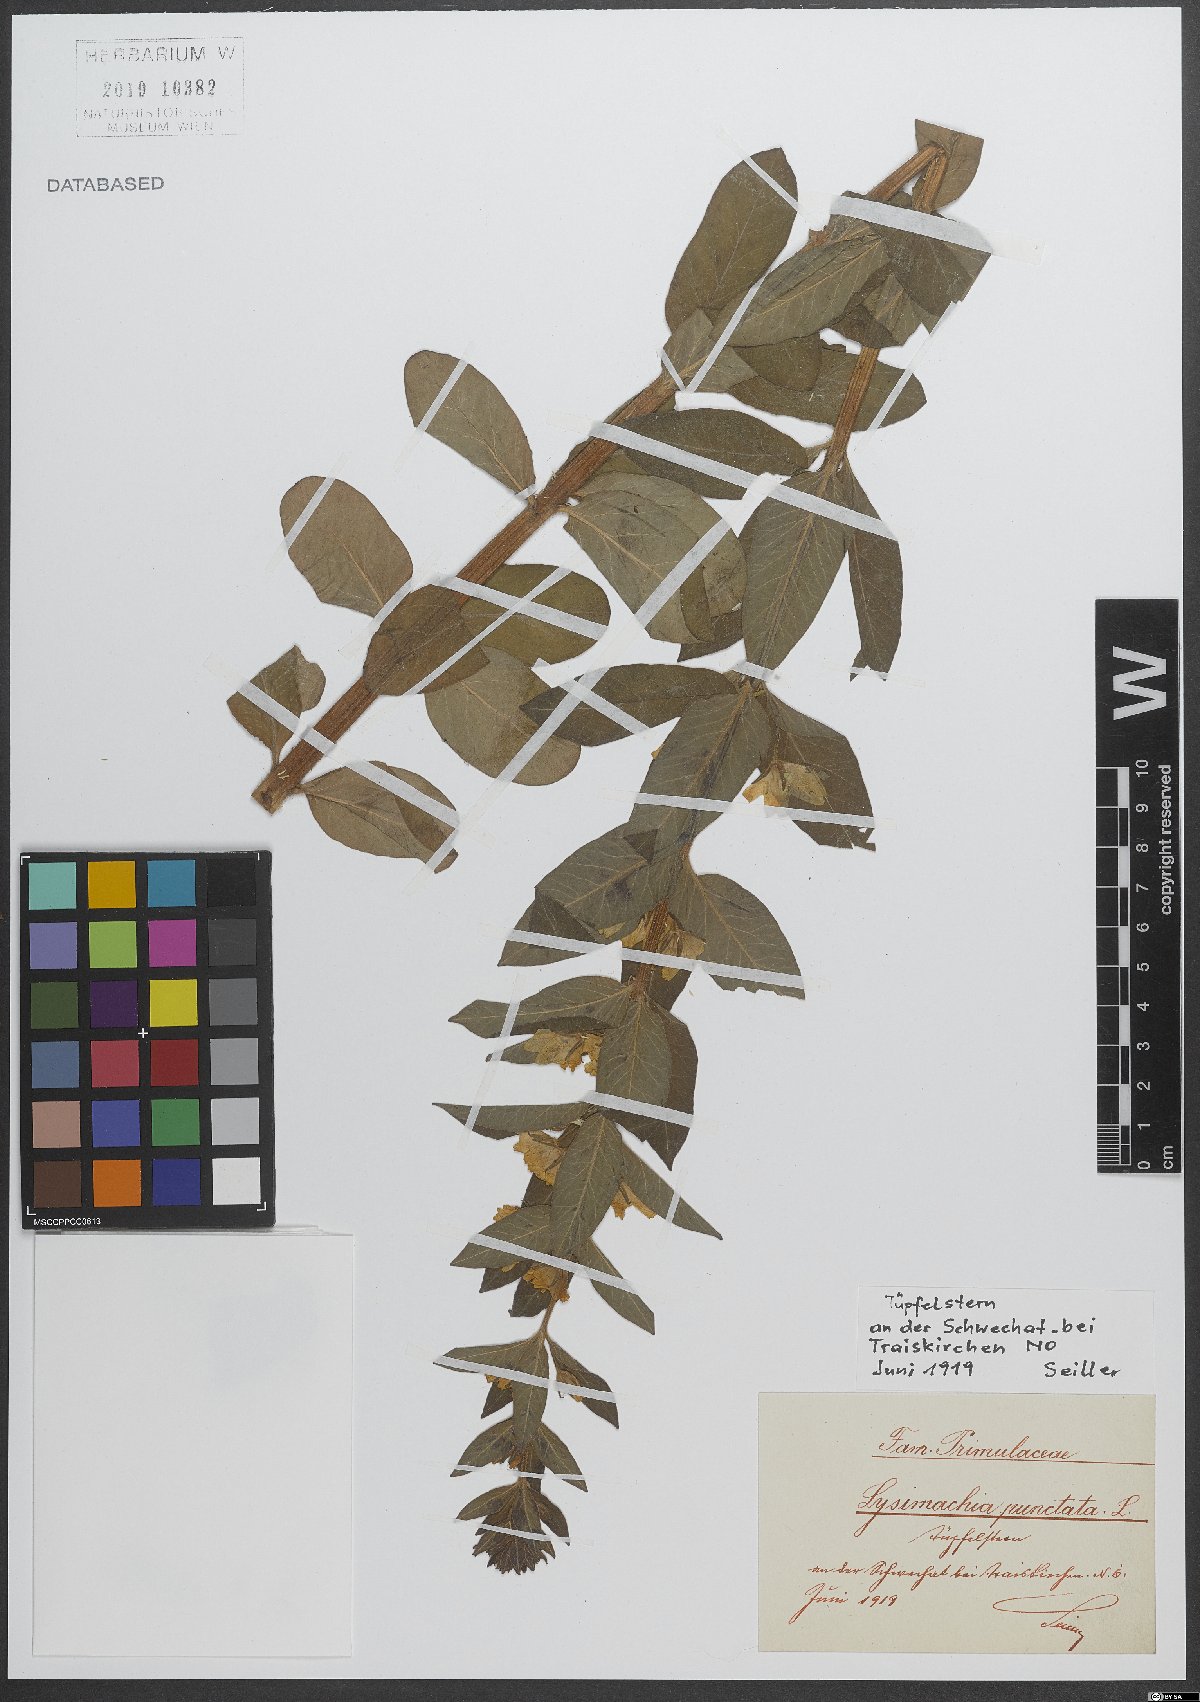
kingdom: Plantae
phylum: Tracheophyta
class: Magnoliopsida
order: Ericales
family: Primulaceae
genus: Lysimachia
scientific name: Lysimachia punctata
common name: Dotted loosestrife
